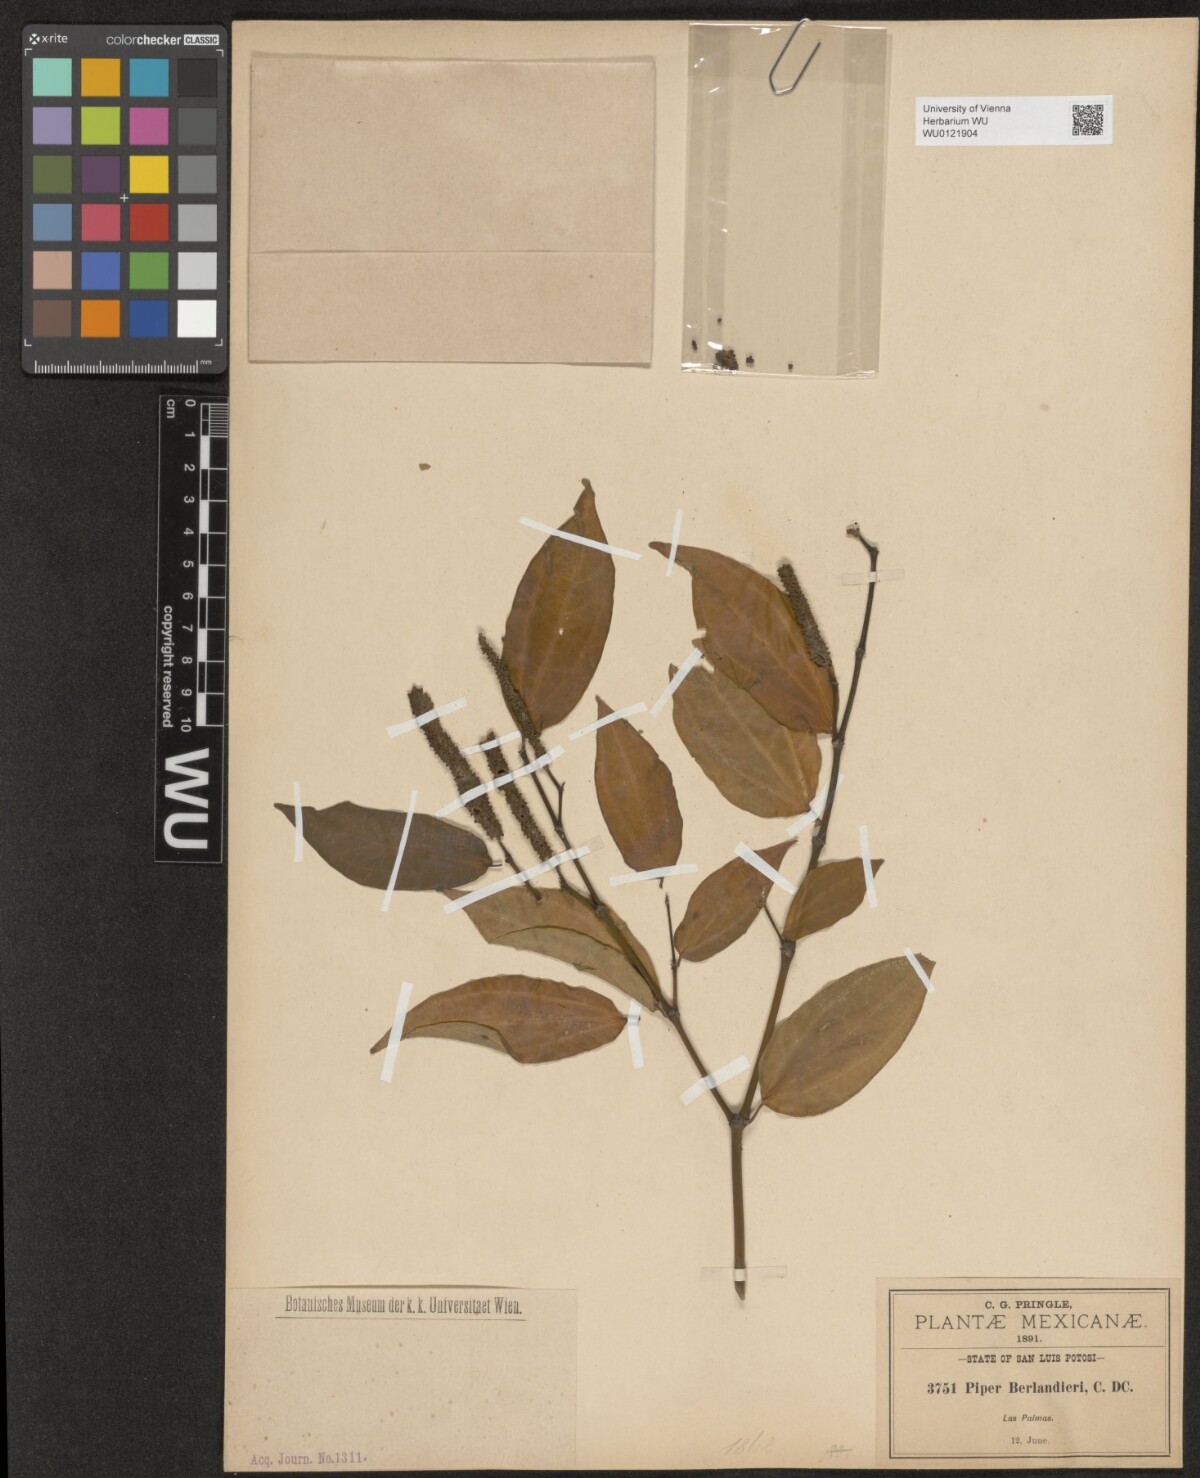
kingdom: Plantae
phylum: Tracheophyta
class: Magnoliopsida
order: Piperales
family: Piperaceae
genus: Piper
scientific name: Piper berlandieri
